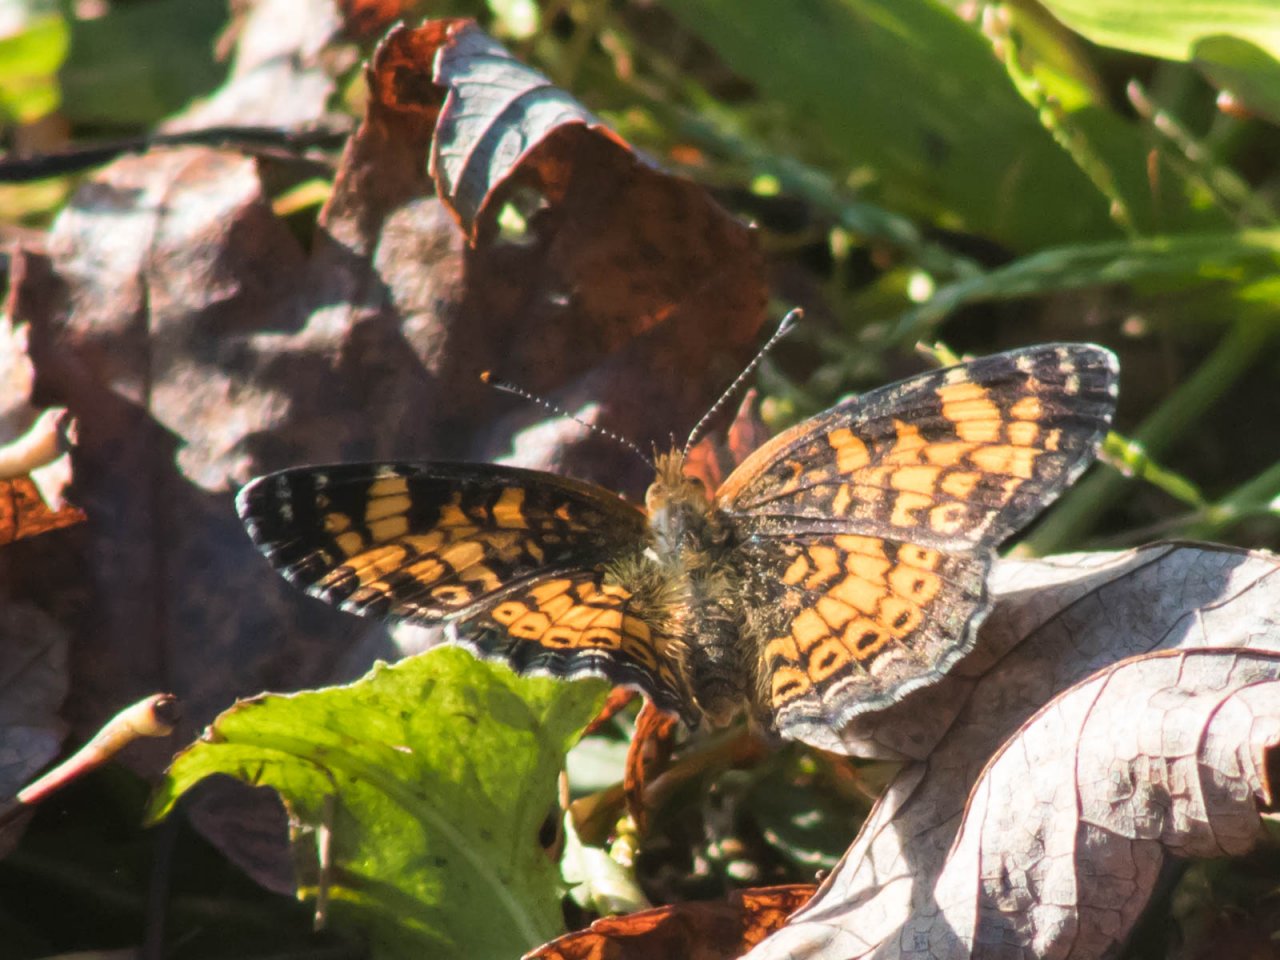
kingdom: Animalia
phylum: Arthropoda
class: Insecta
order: Lepidoptera
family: Nymphalidae
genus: Phyciodes
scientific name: Phyciodes tharos
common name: Pearl Crescent
